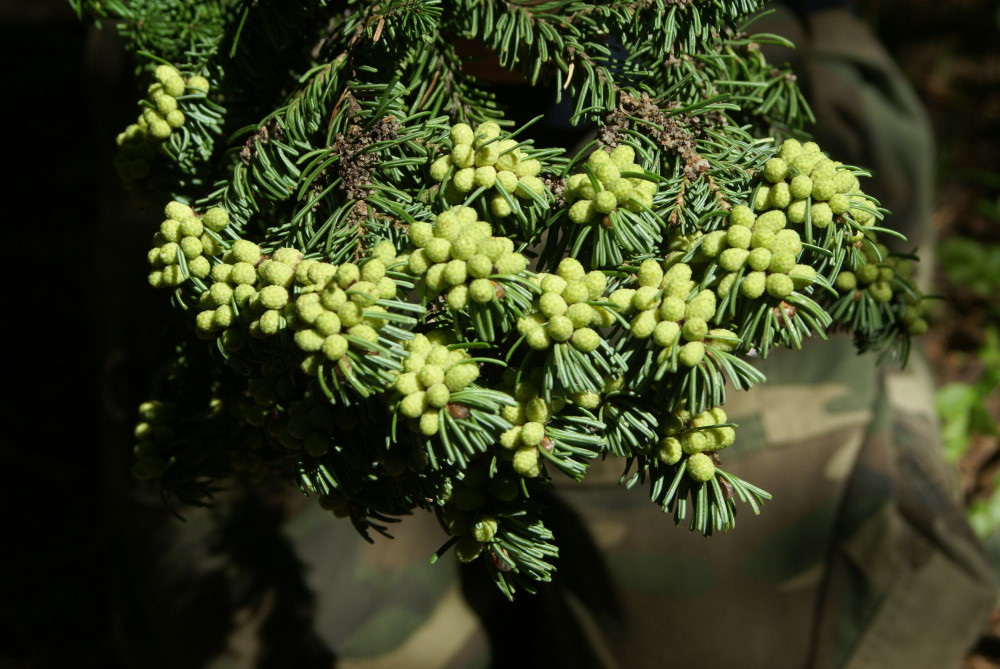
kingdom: Plantae
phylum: Tracheophyta
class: Pinopsida
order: Pinales
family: Pinaceae
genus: Picea
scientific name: Picea obovata
